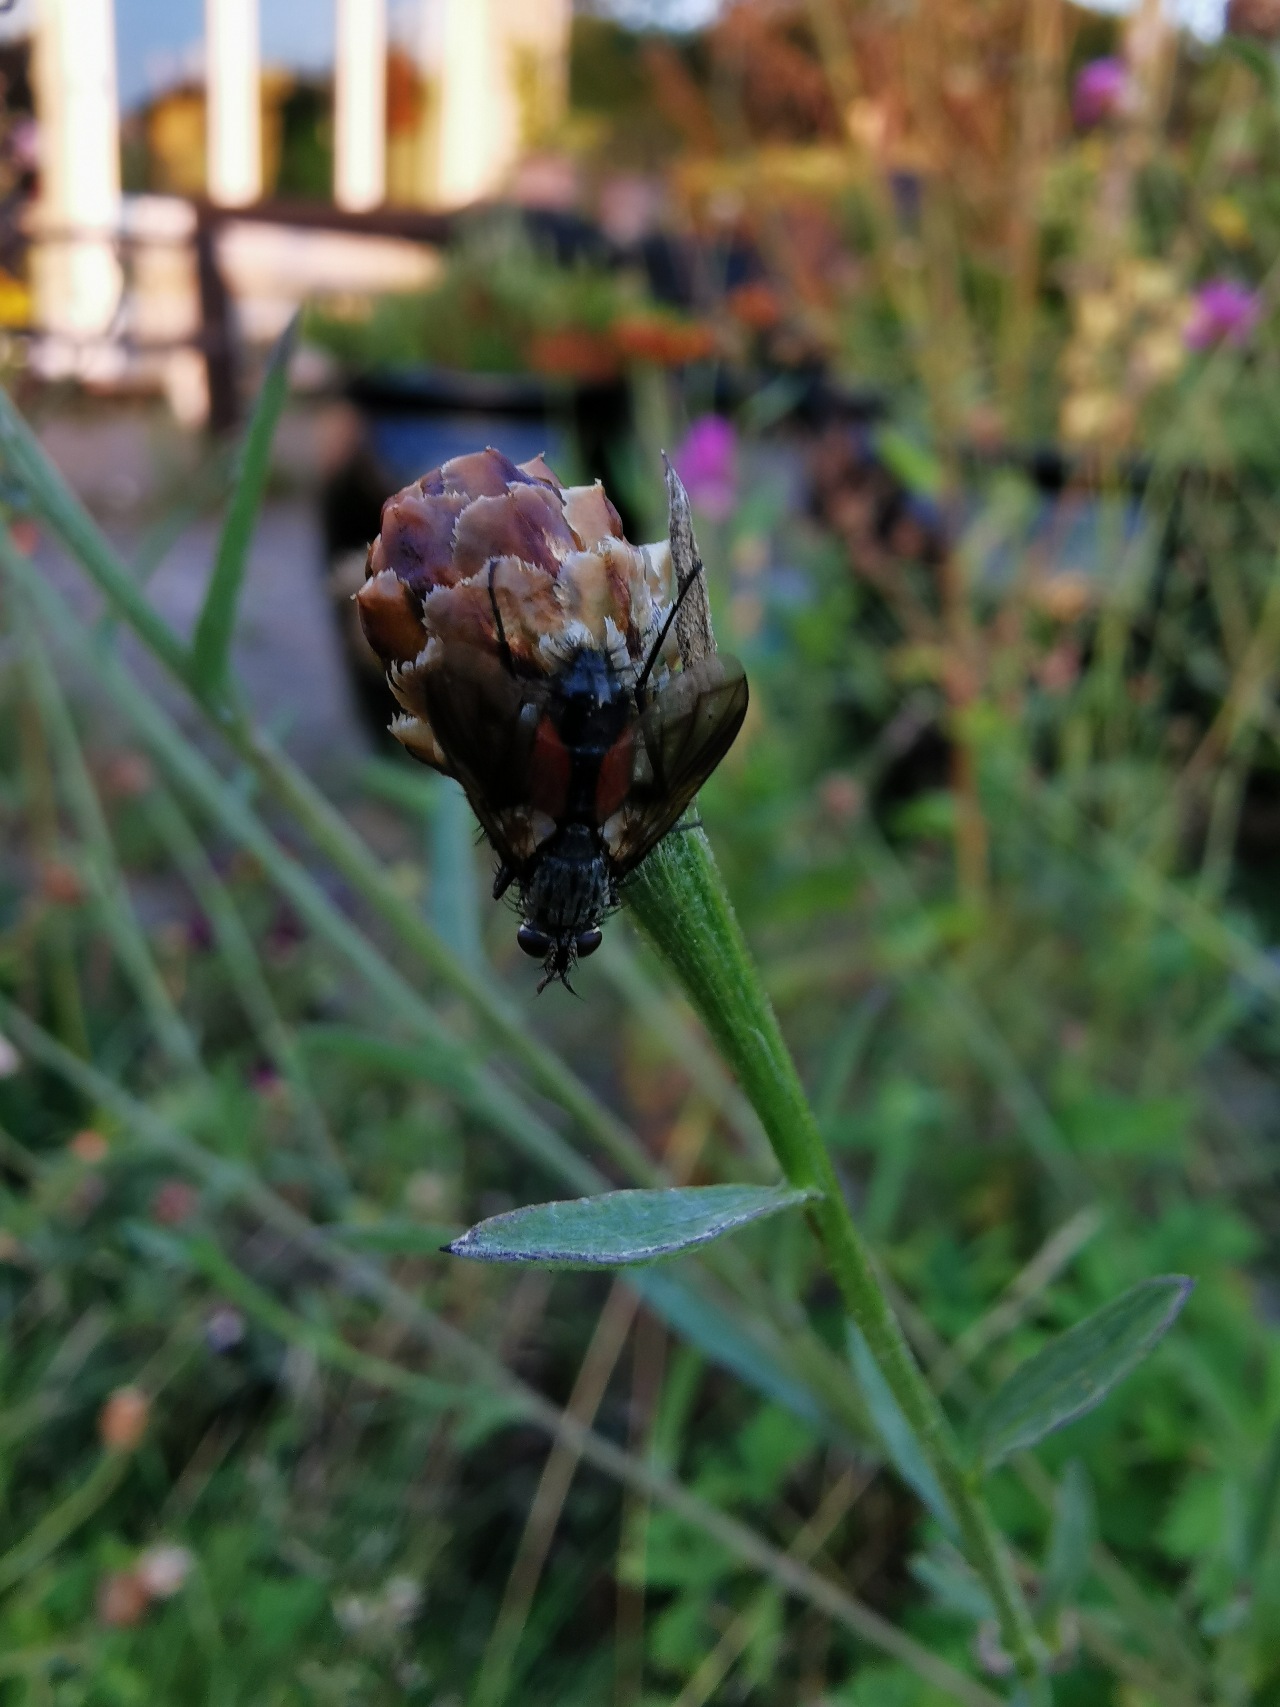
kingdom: Animalia
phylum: Arthropoda
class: Insecta
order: Diptera
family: Tachinidae
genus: Eriothrix
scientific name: Eriothrix rufomaculatus
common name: Rød snylteflue
